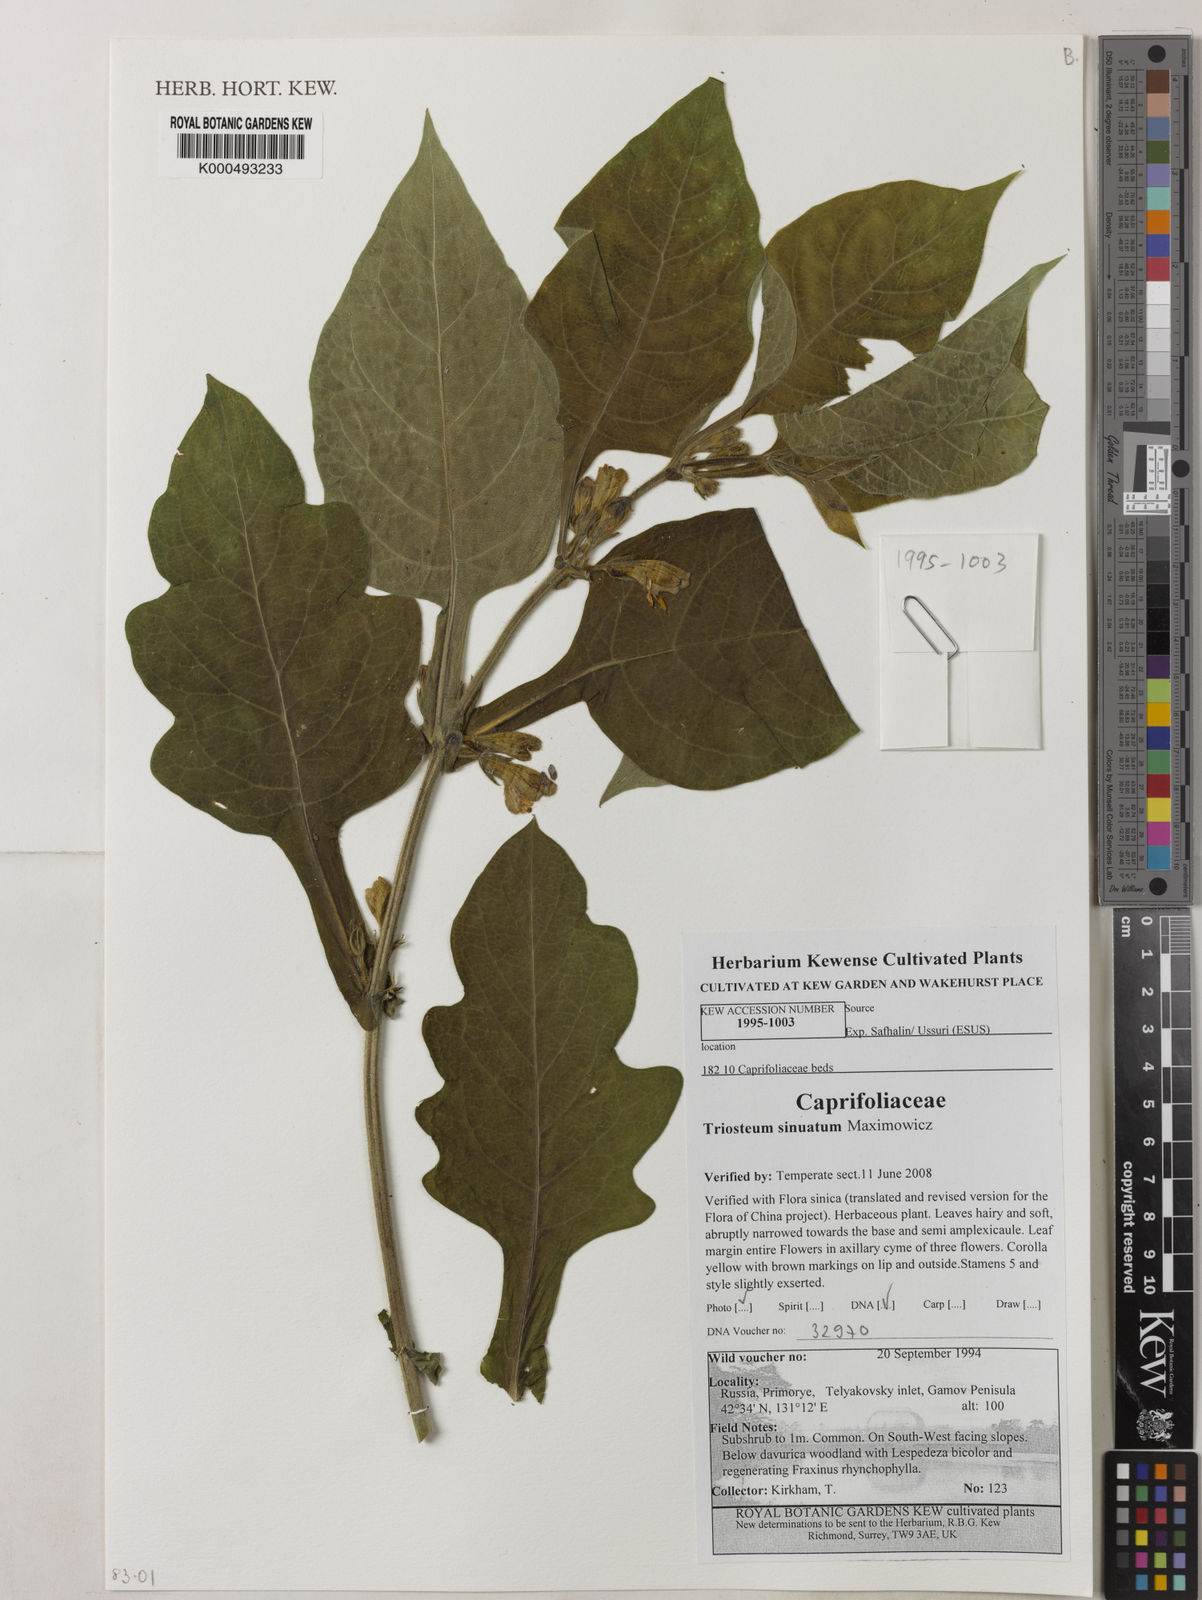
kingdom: Plantae
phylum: Tracheophyta
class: Magnoliopsida
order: Dipsacales
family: Caprifoliaceae
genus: Triosteum
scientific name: Triosteum sinuatum
